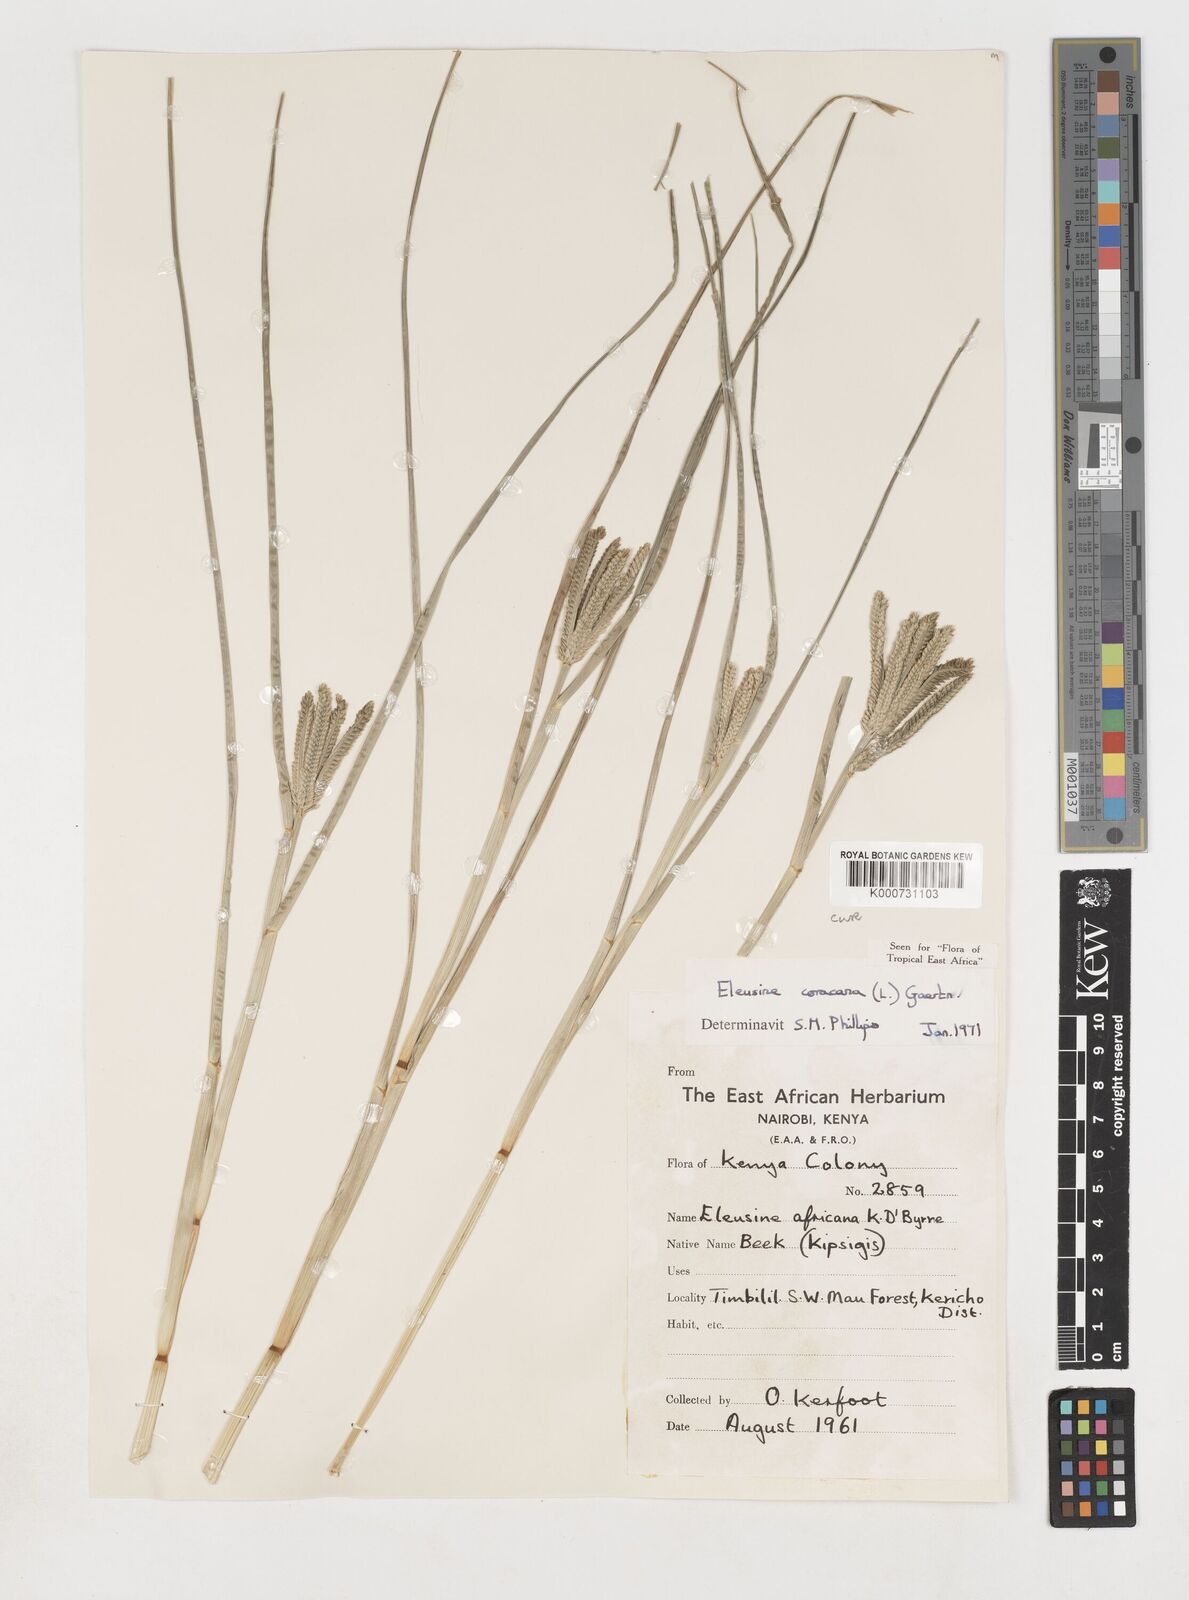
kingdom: Plantae
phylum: Tracheophyta
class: Liliopsida
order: Poales
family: Poaceae
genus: Eleusine
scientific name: Eleusine coracana
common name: Finger millet
